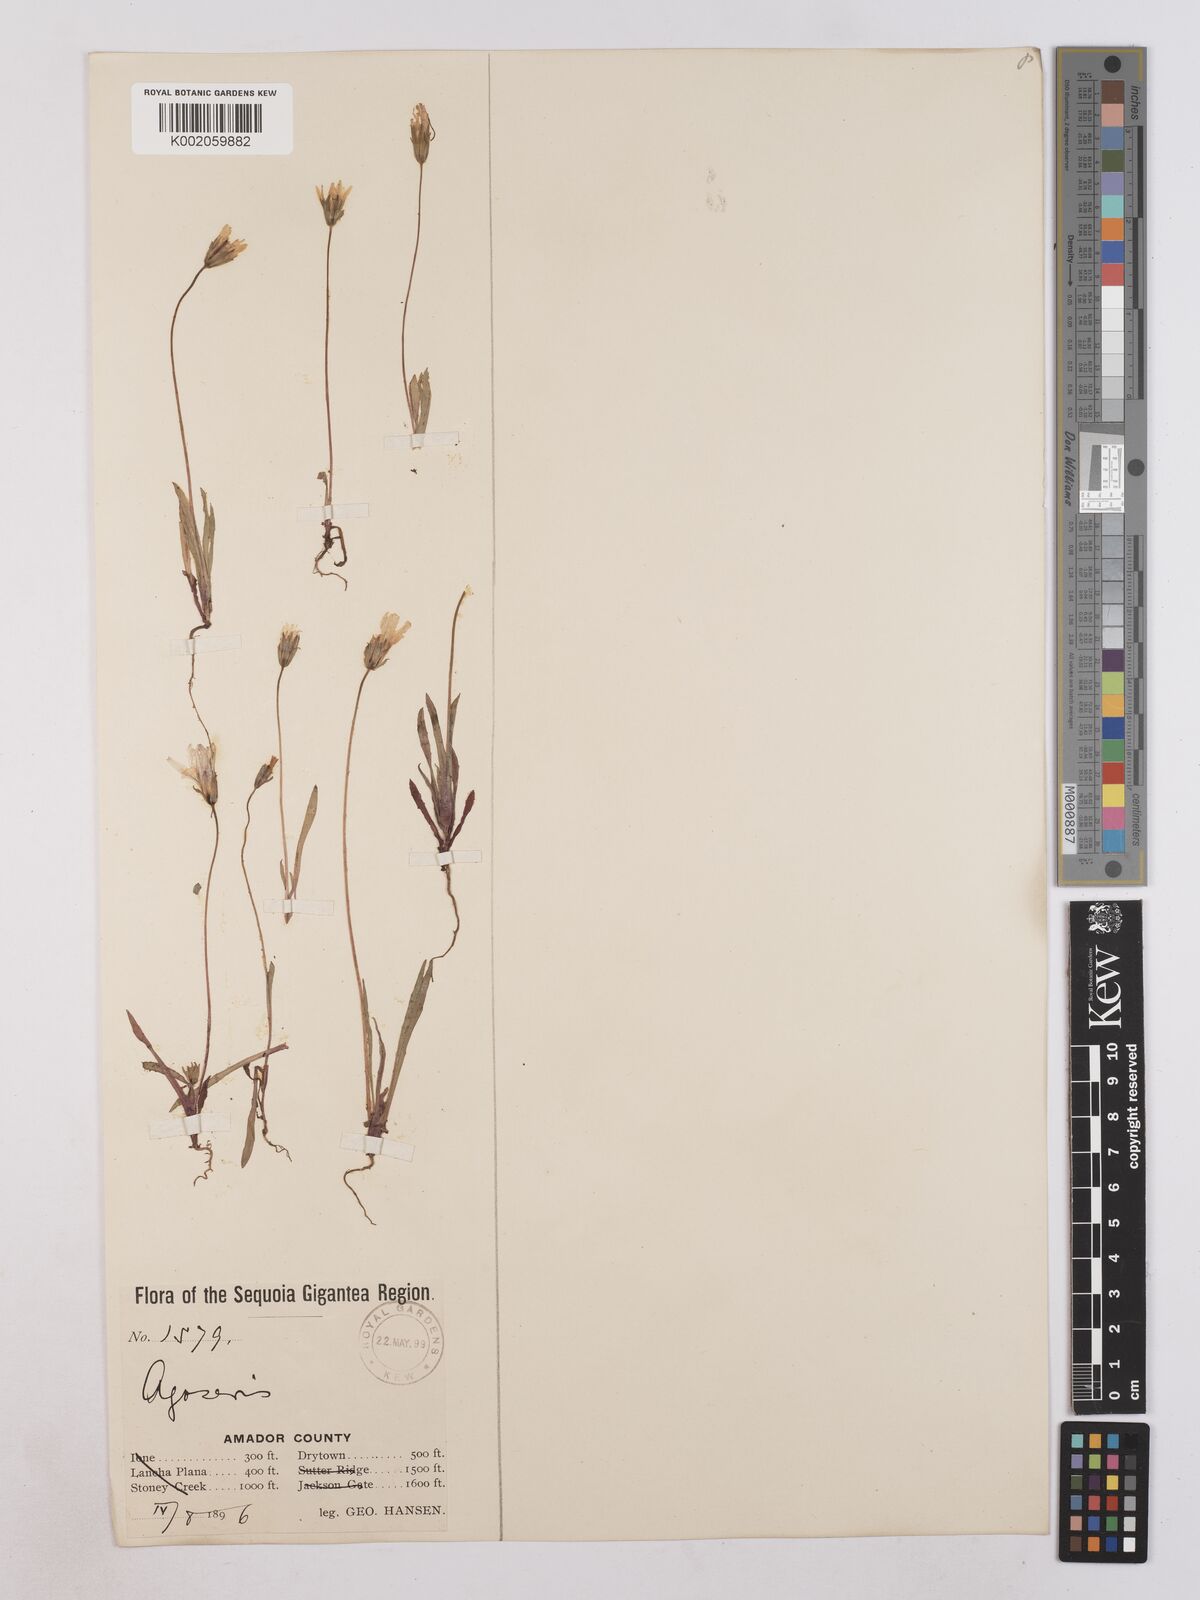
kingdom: Plantae
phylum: Tracheophyta
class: Magnoliopsida
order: Asterales
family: Asteraceae
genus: Agoseris
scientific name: Agoseris heterophylla
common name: Annual agoseris
